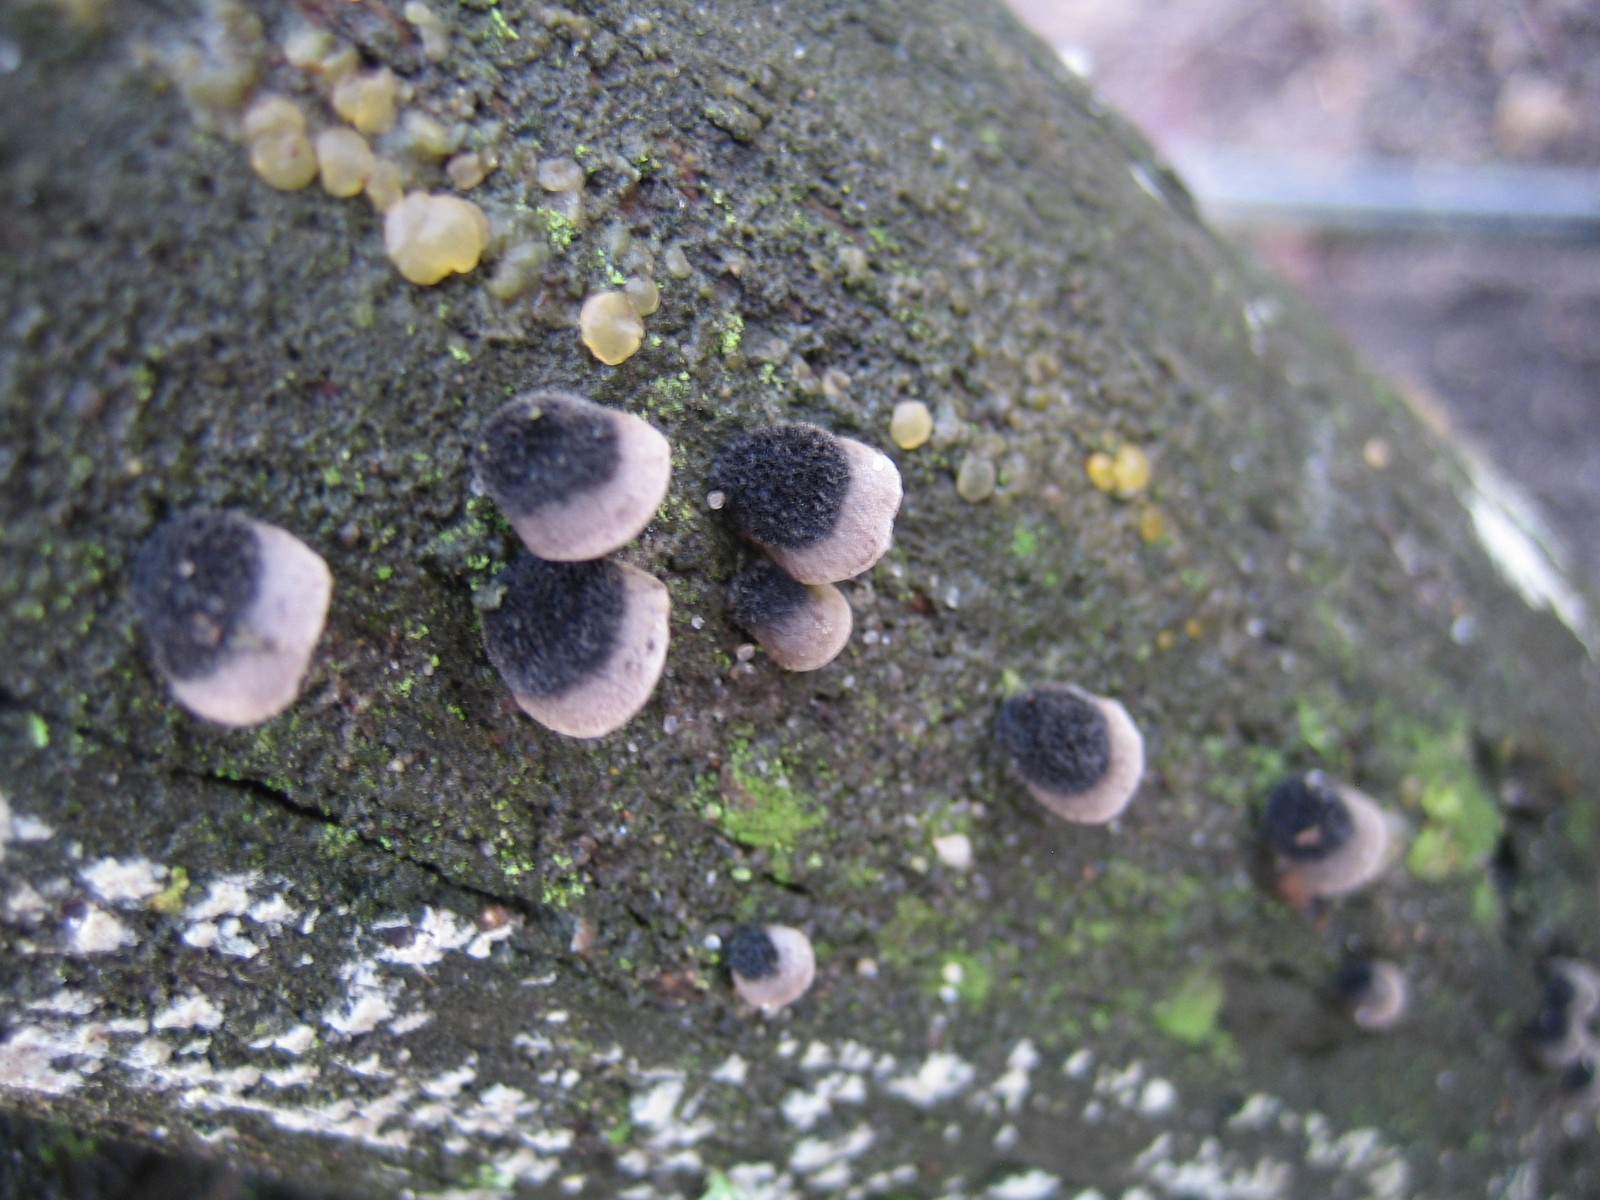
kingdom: Fungi
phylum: Basidiomycota
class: Agaricomycetes
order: Agaricales
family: Pleurotaceae
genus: Resupinatus
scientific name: Resupinatus trichotis
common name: mørkfiltet barkhat
